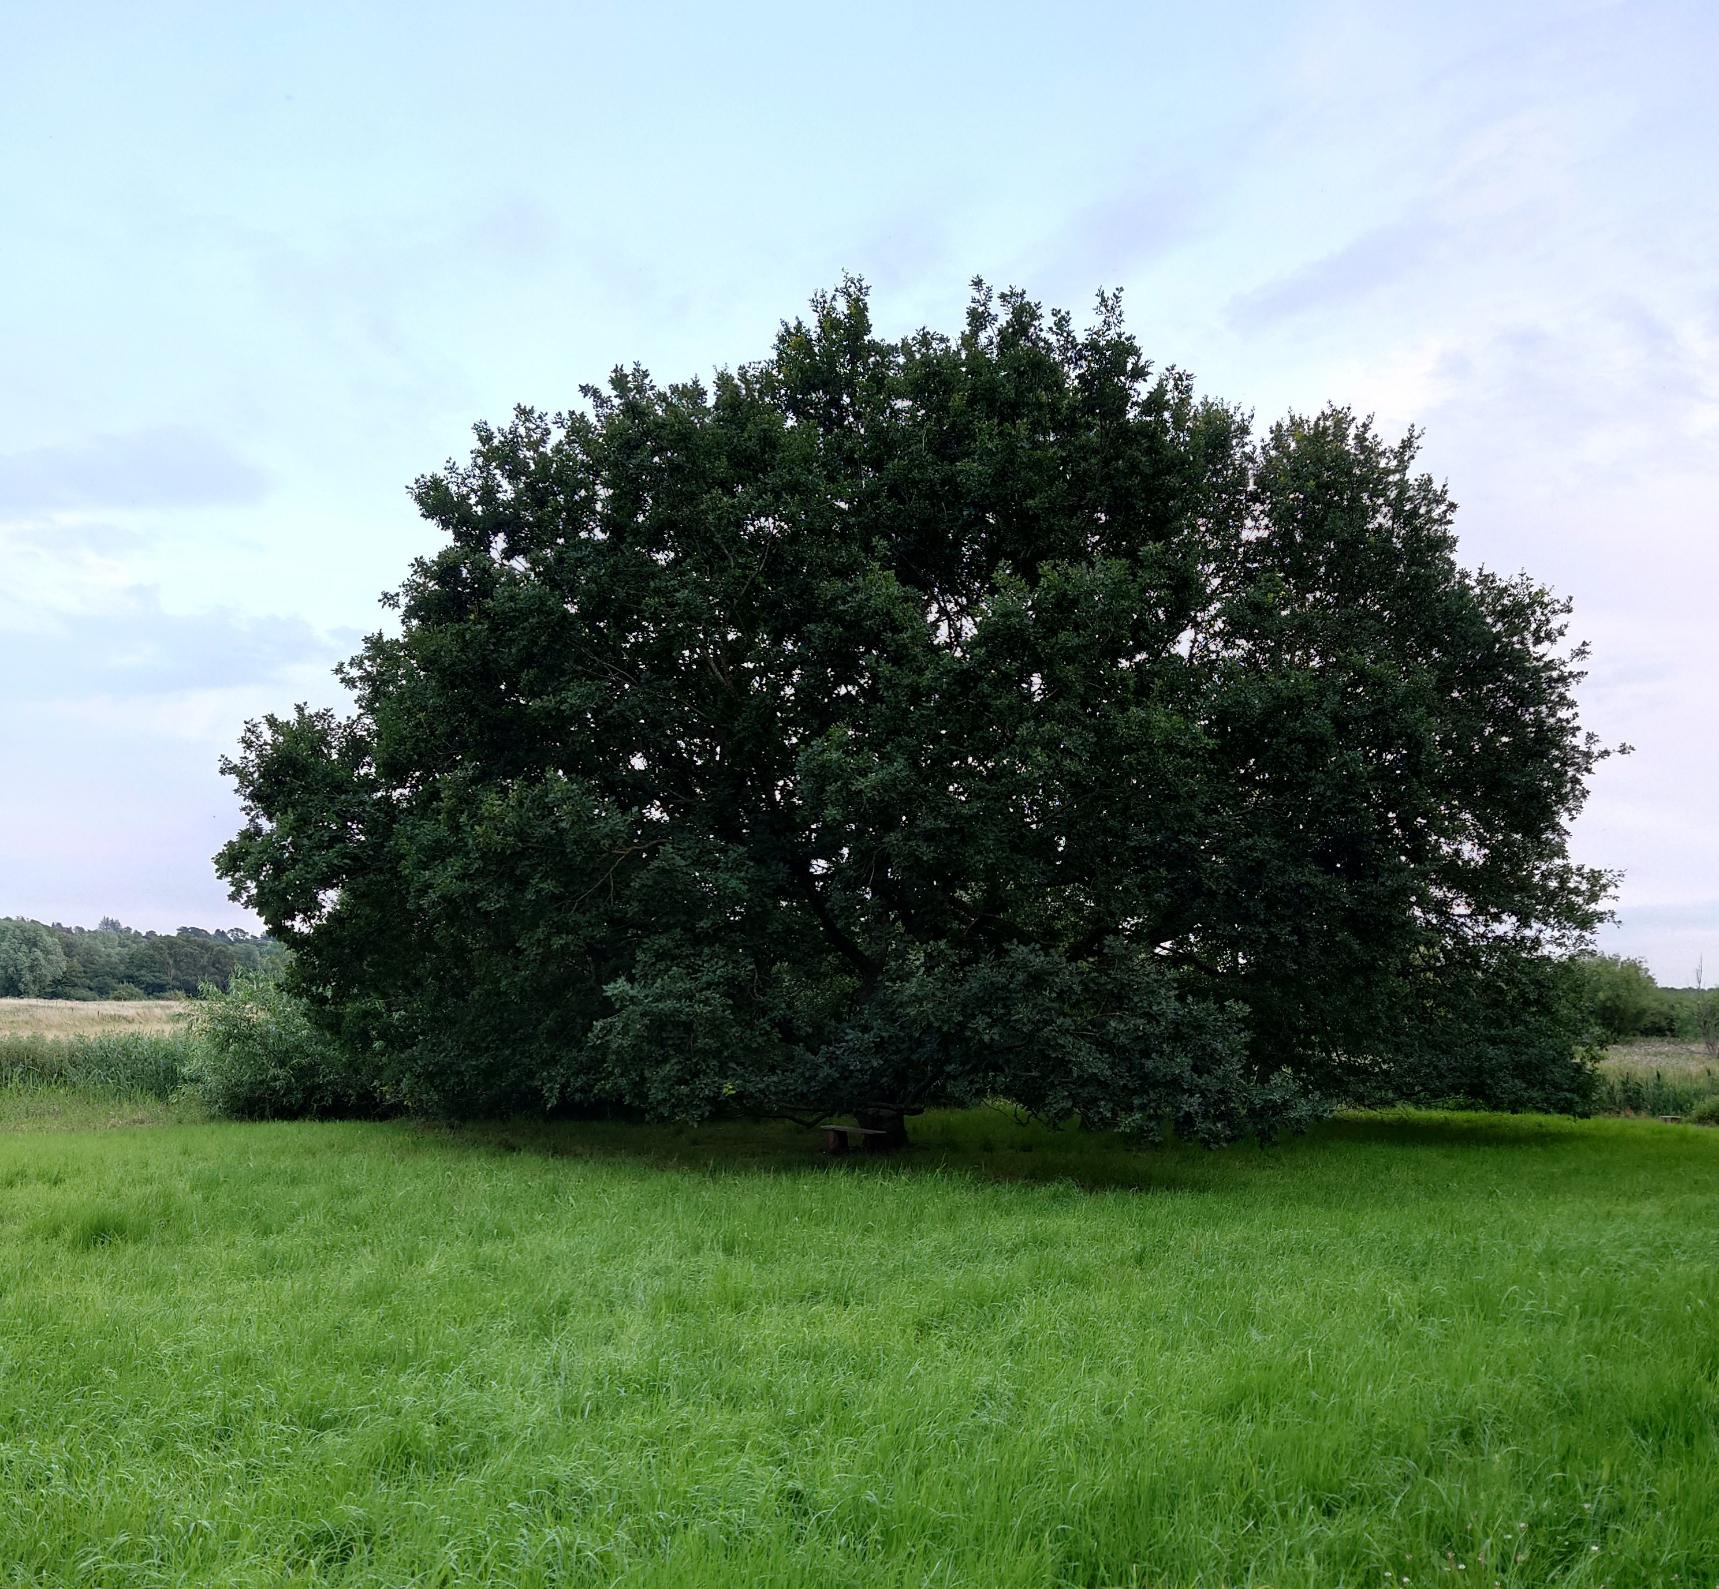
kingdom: Plantae
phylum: Tracheophyta
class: Magnoliopsida
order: Fagales
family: Fagaceae
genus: Quercus
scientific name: Quercus robur
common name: Stilk-eg/almindelig eg
